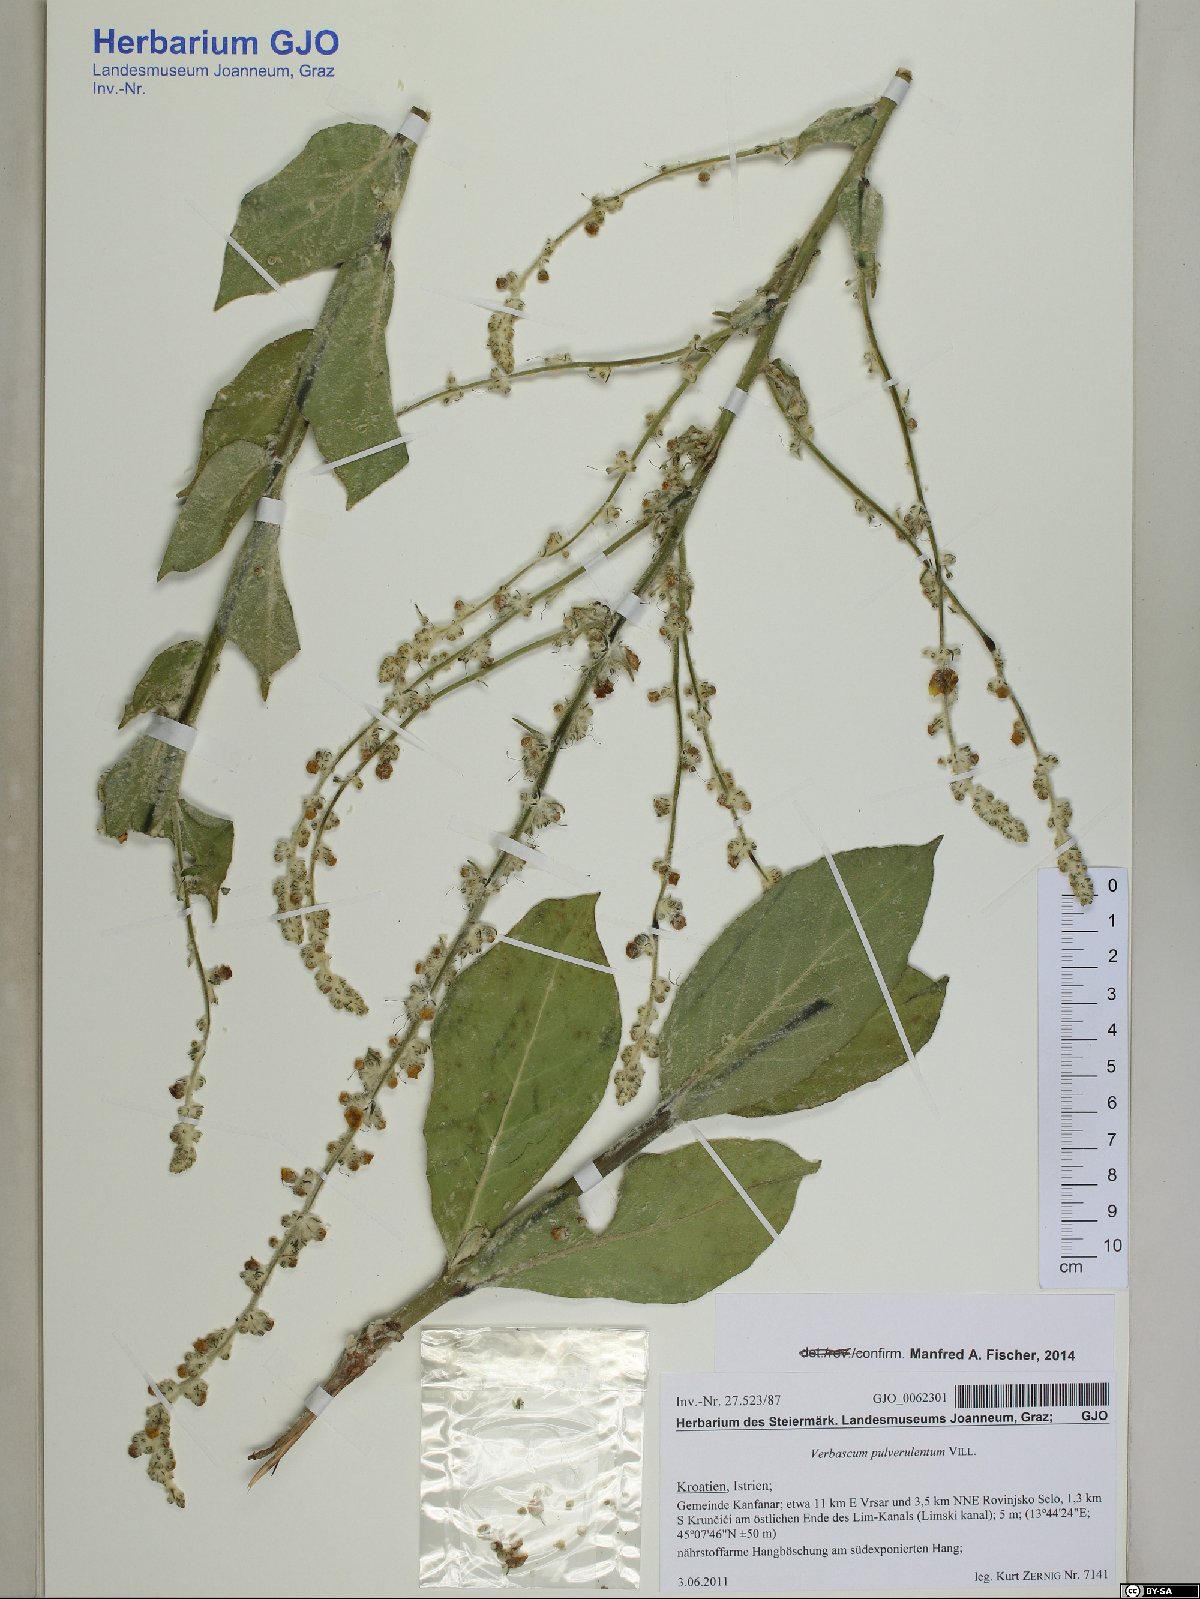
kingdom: Plantae
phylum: Tracheophyta
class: Magnoliopsida
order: Lamiales
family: Scrophulariaceae
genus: Verbascum
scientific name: Verbascum pulverulentum
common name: Broad-leaf mullein
